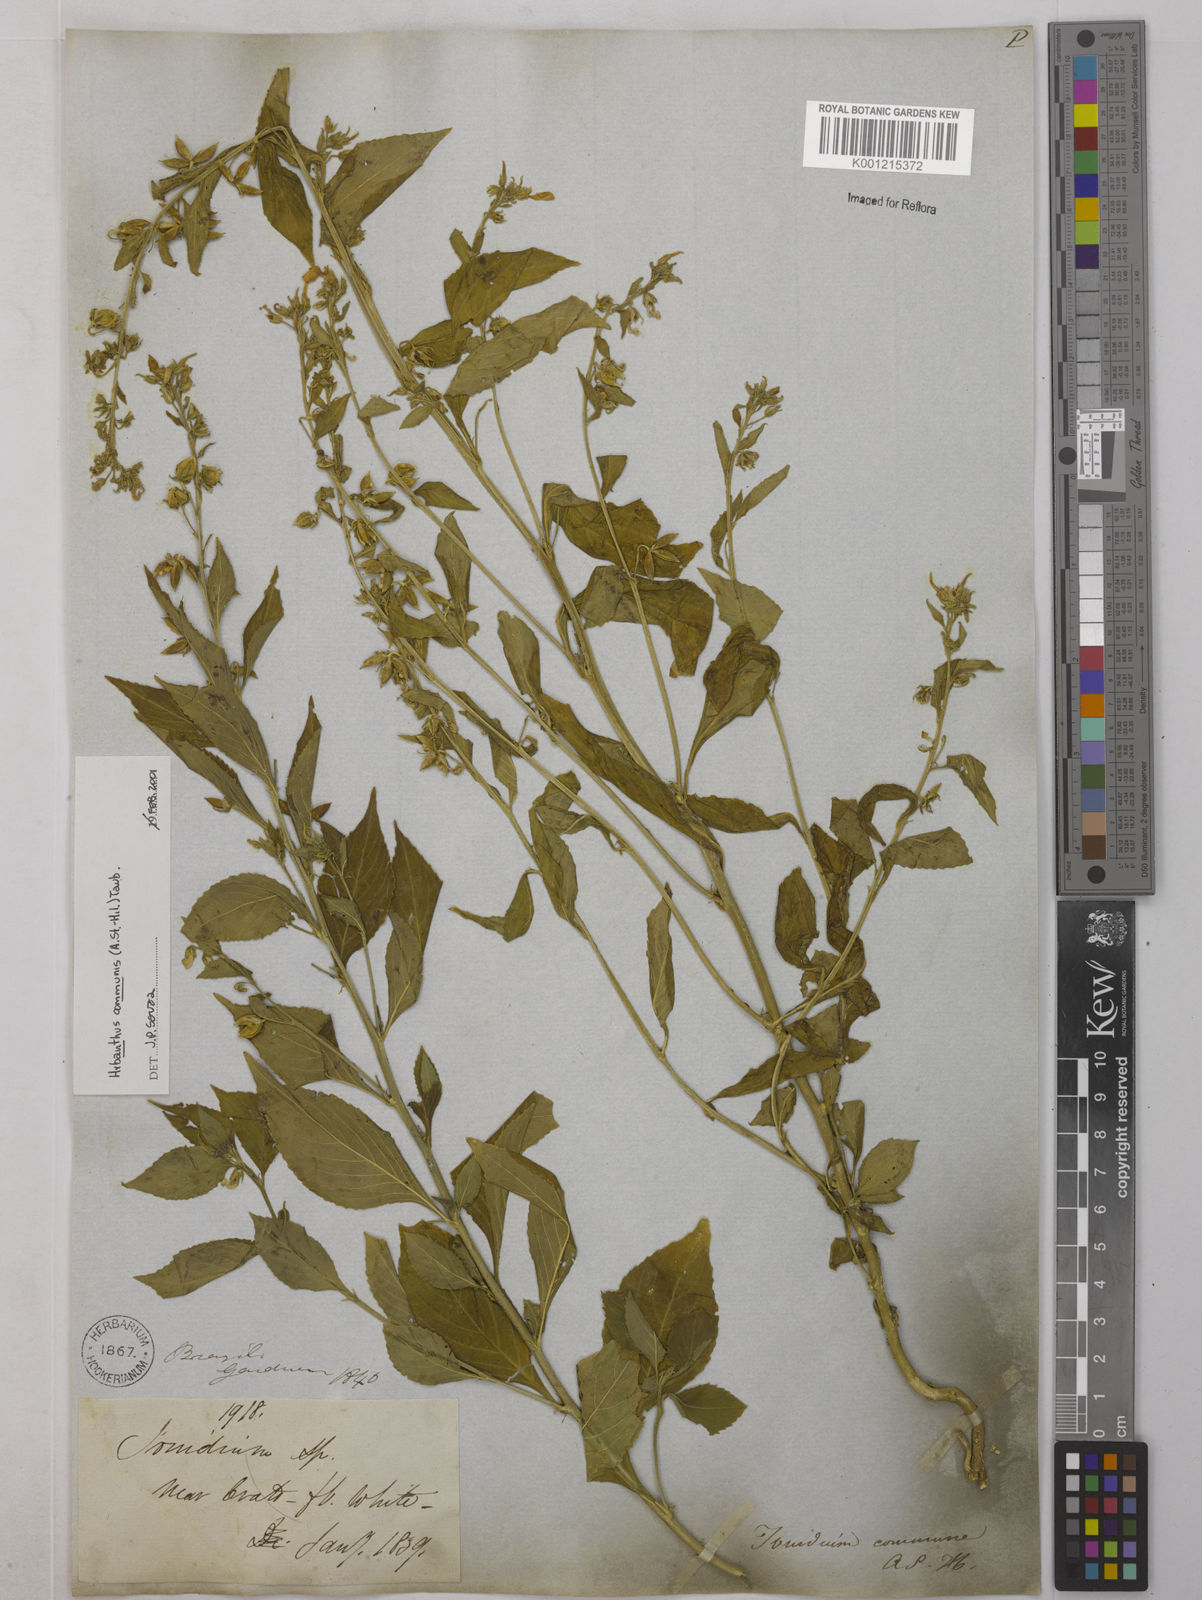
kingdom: Plantae
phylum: Tracheophyta
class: Magnoliopsida
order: Malpighiales
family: Violaceae
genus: Pombalia
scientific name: Pombalia communis
